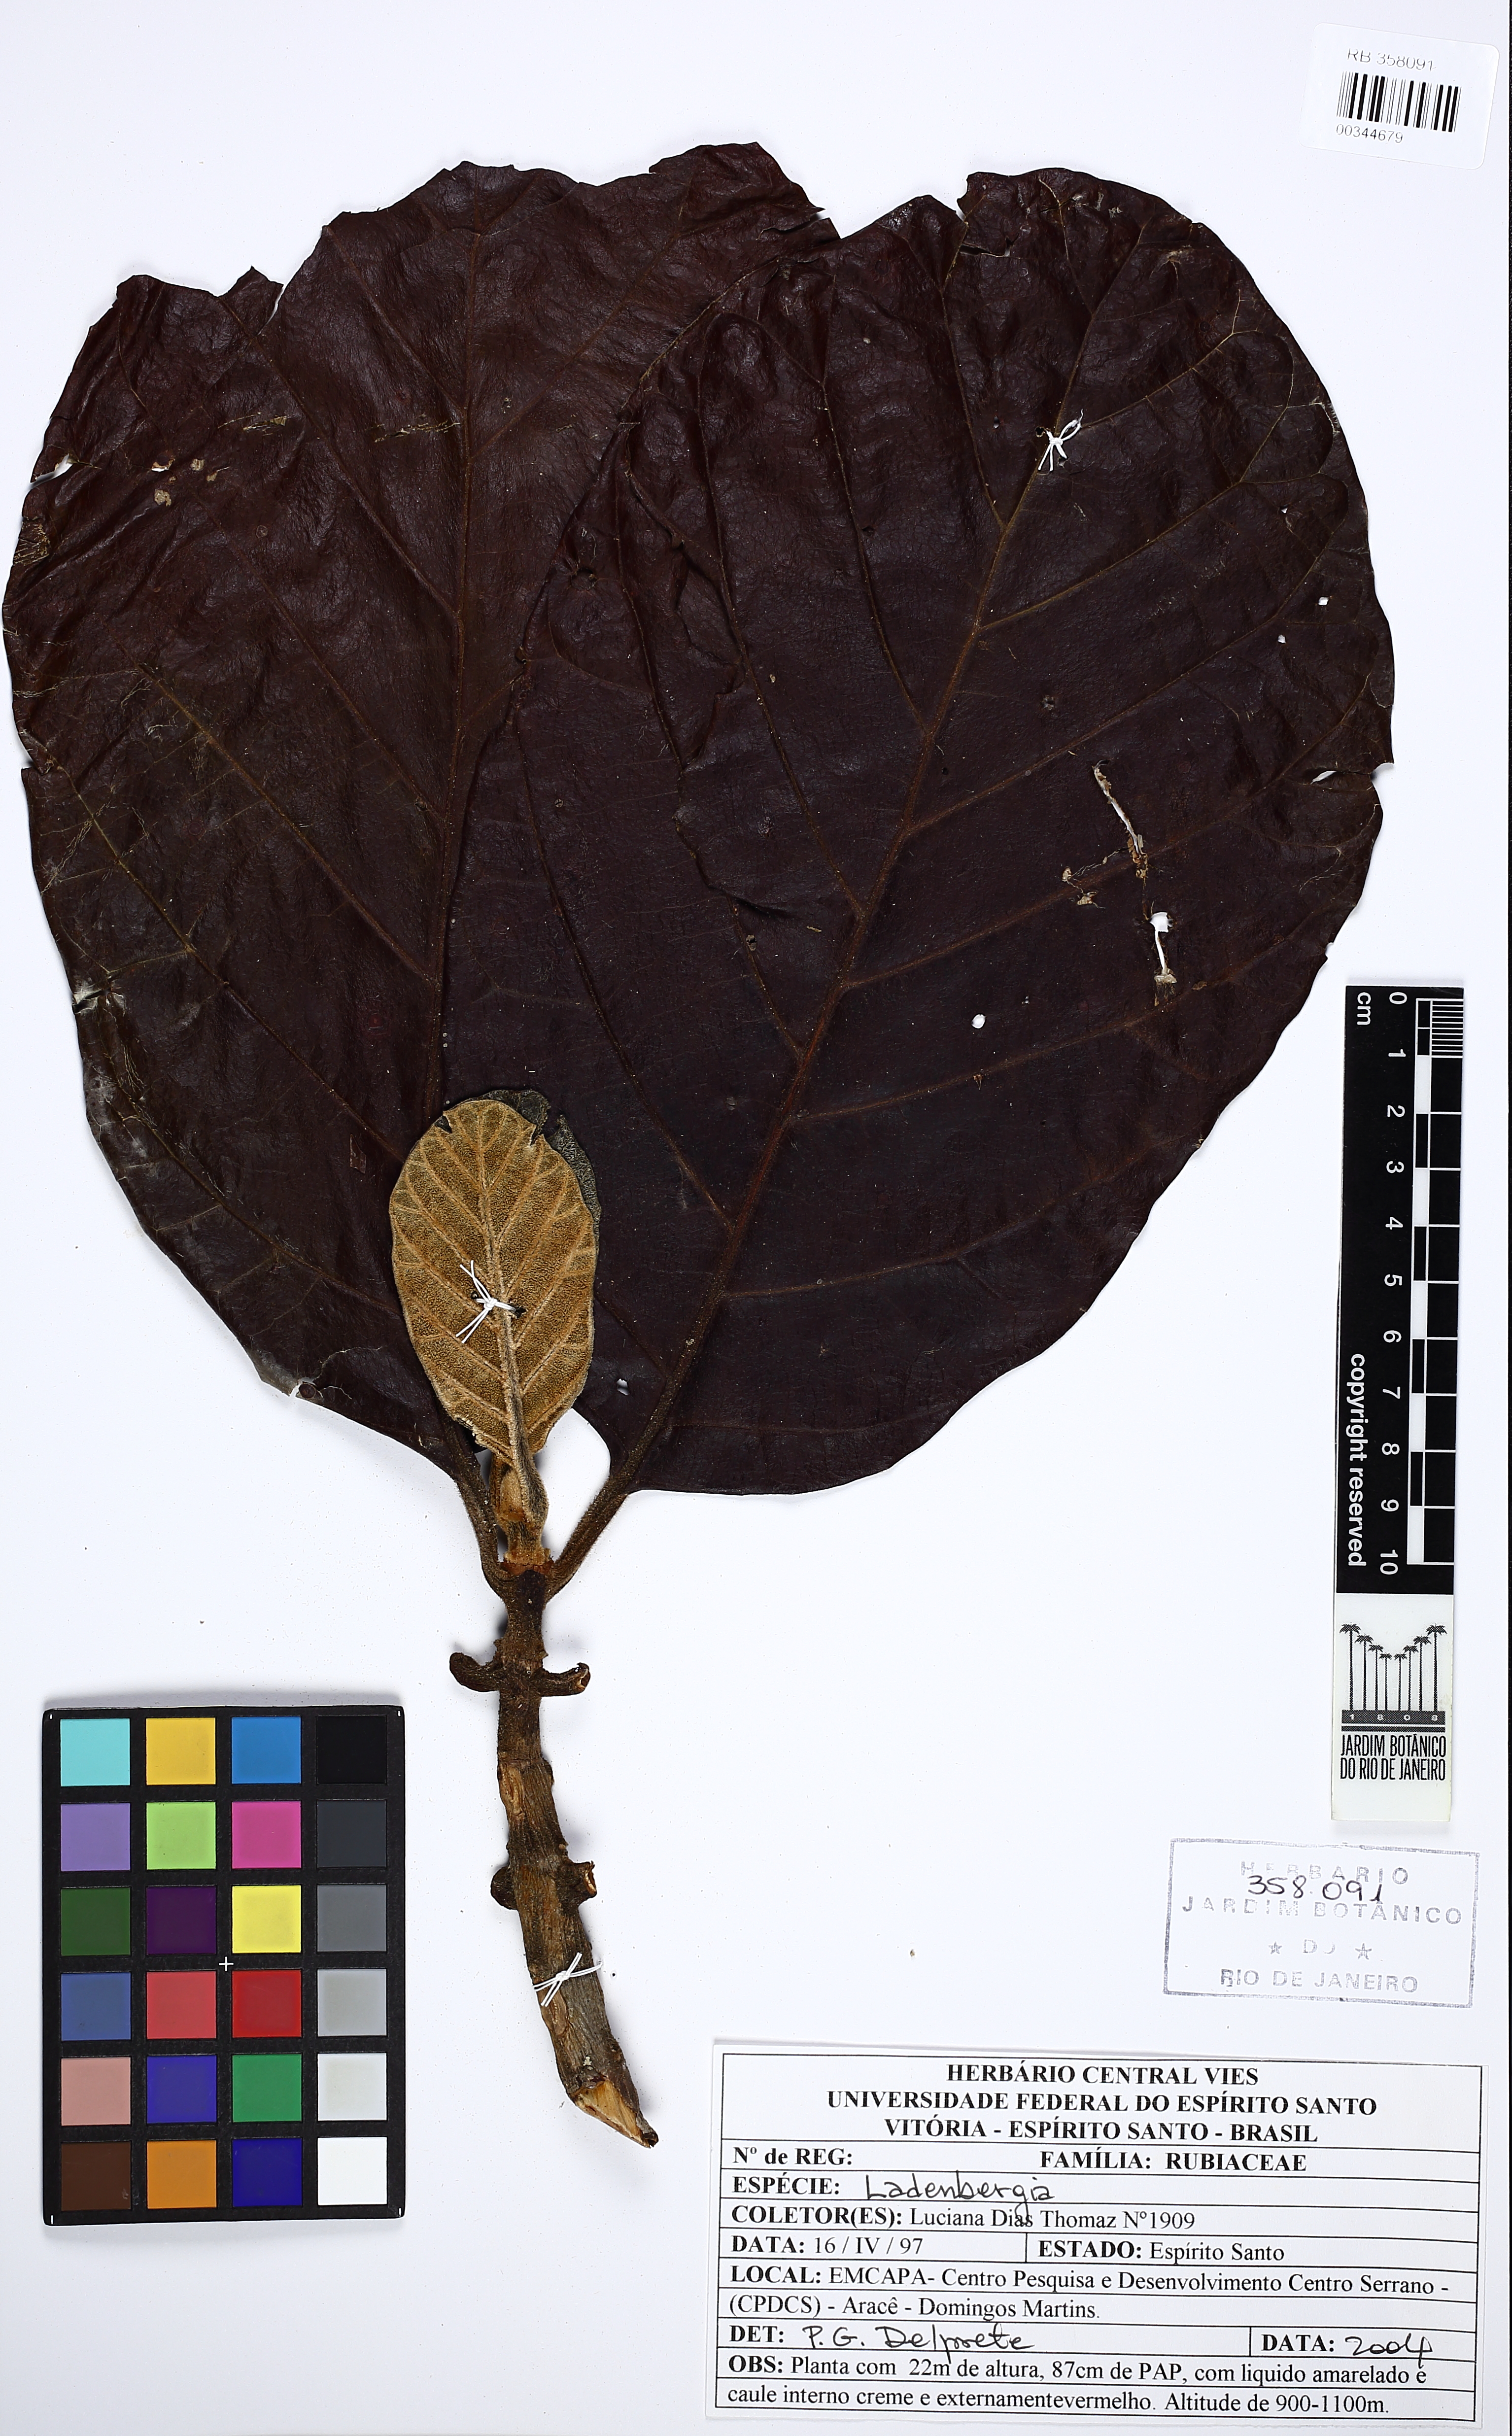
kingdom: Plantae
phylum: Tracheophyta
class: Magnoliopsida
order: Gentianales
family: Rubiaceae
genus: Ladenbergia
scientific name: Ladenbergia hexandra
